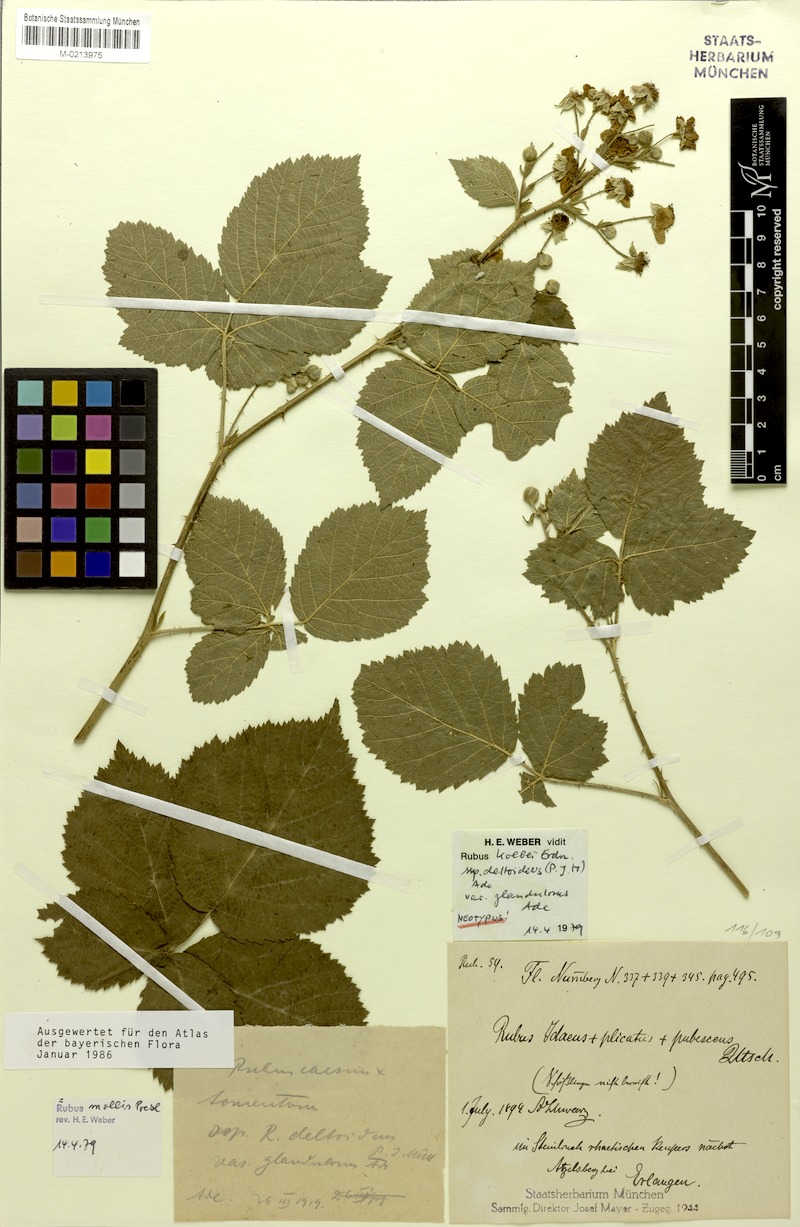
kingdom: Plantae
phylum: Tracheophyta
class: Magnoliopsida
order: Rosales
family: Rosaceae
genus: Rubus
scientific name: Rubus mollis
